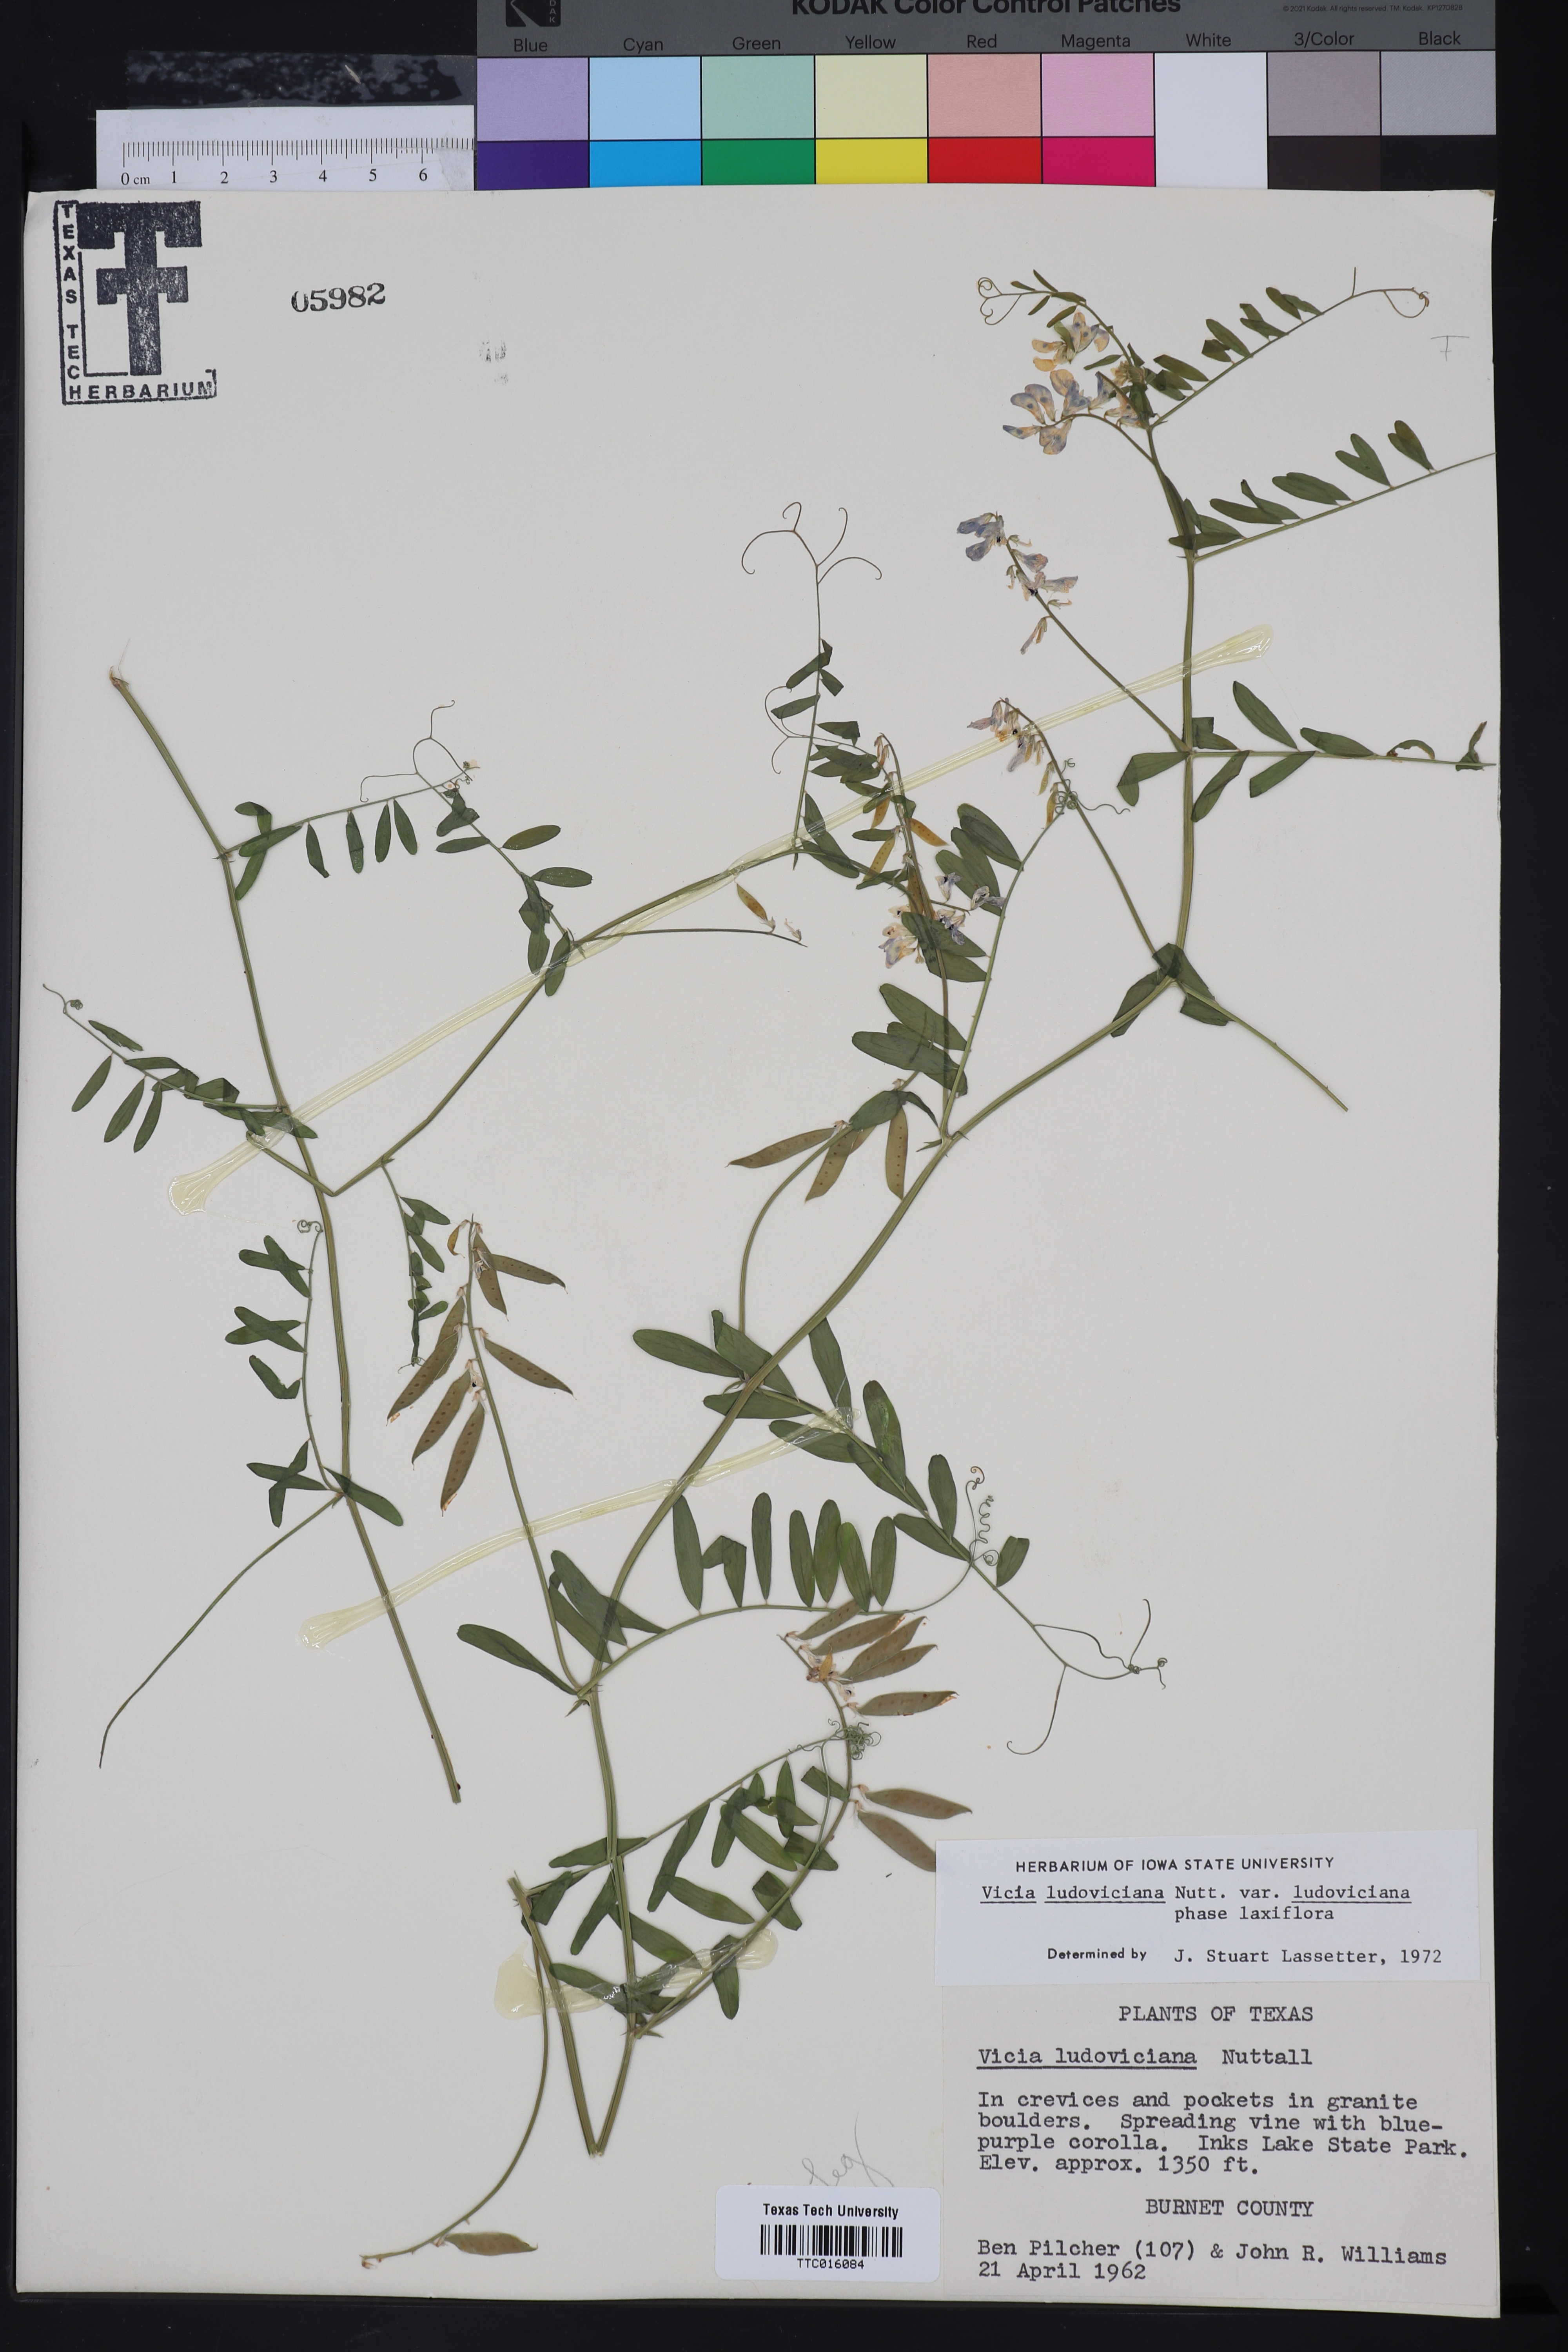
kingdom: Plantae
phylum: Tracheophyta
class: Magnoliopsida
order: Fabales
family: Fabaceae
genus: Vicia
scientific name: Vicia ludoviciana
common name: Louisiana vetch
